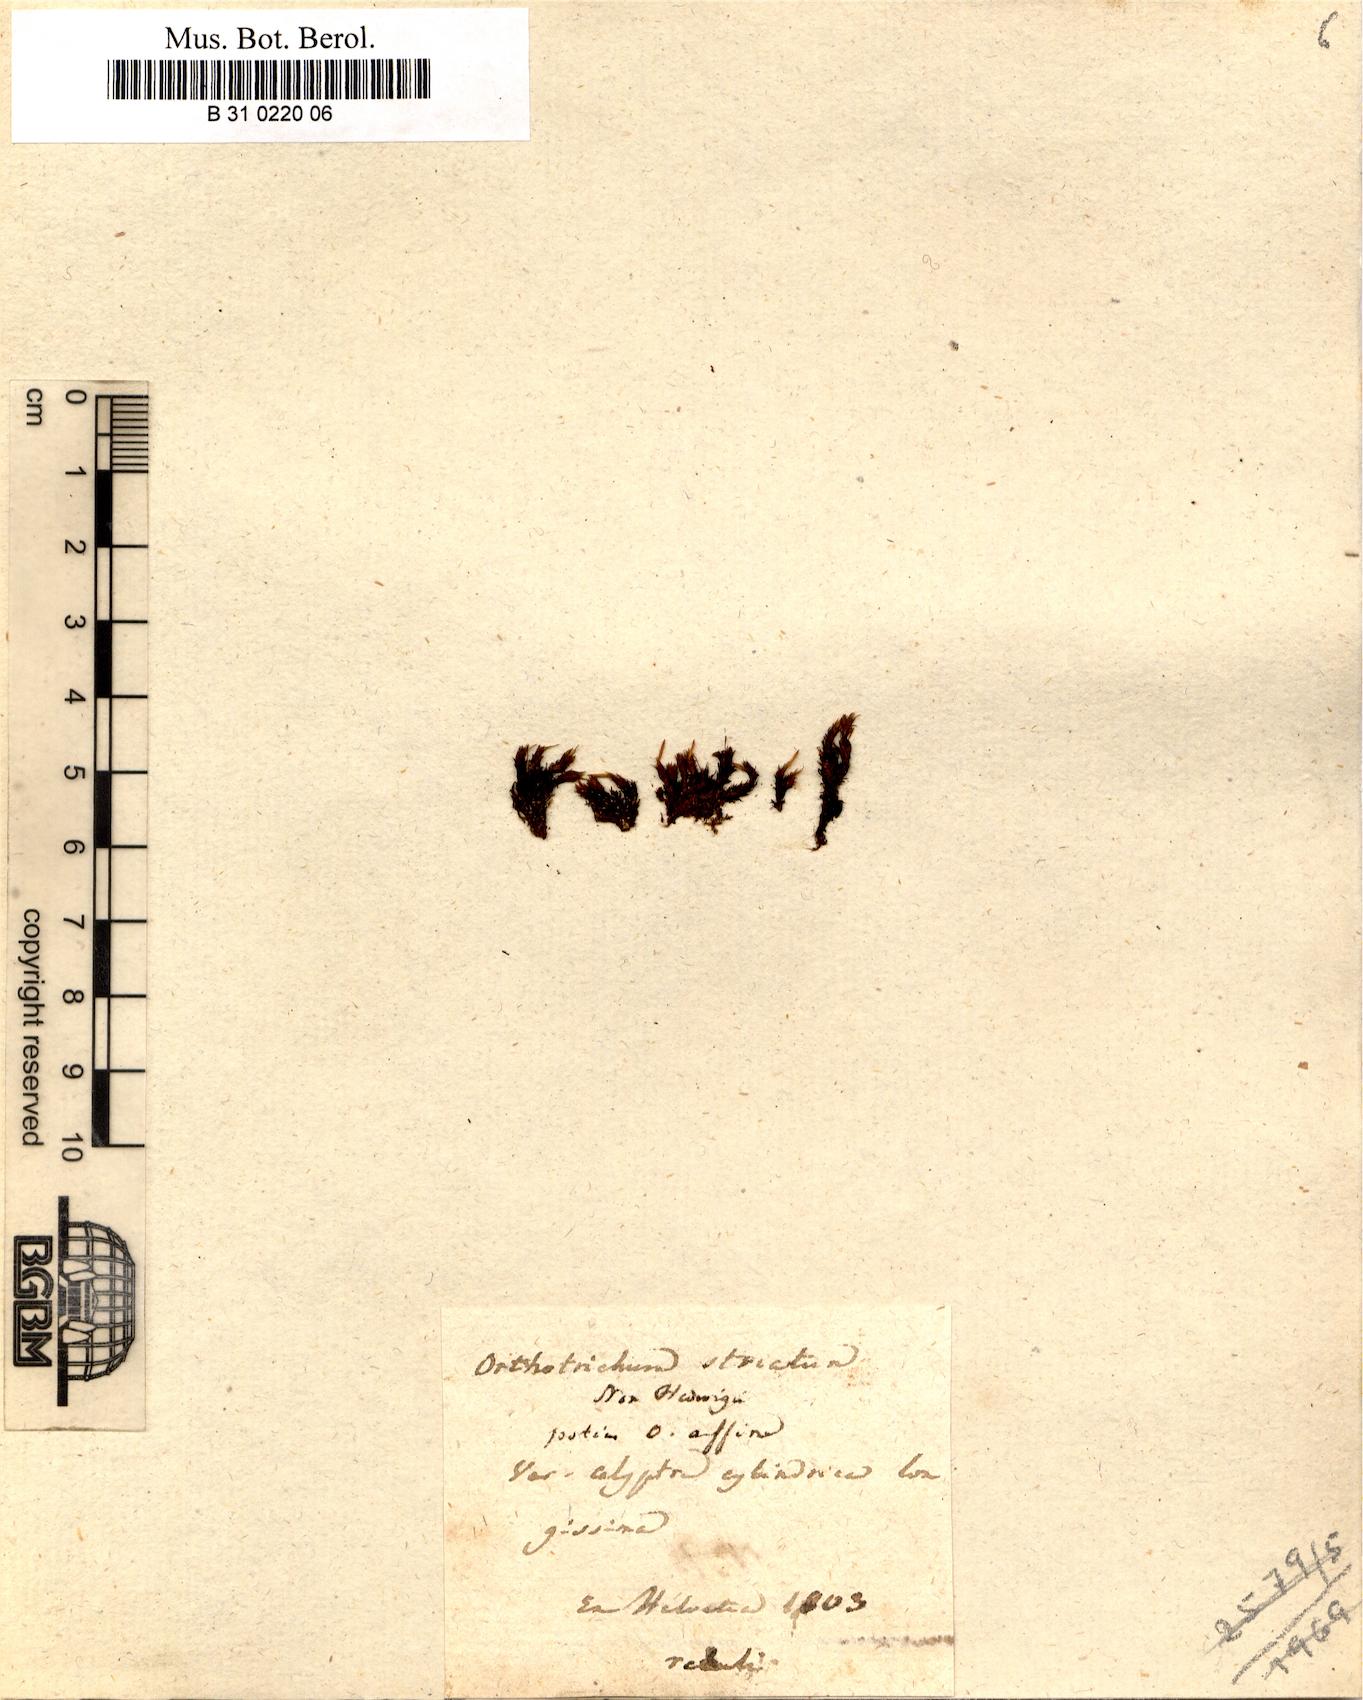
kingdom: Plantae
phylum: Bryophyta
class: Bryopsida
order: Orthotrichales
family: Orthotrichaceae
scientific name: Orthotrichaceae
